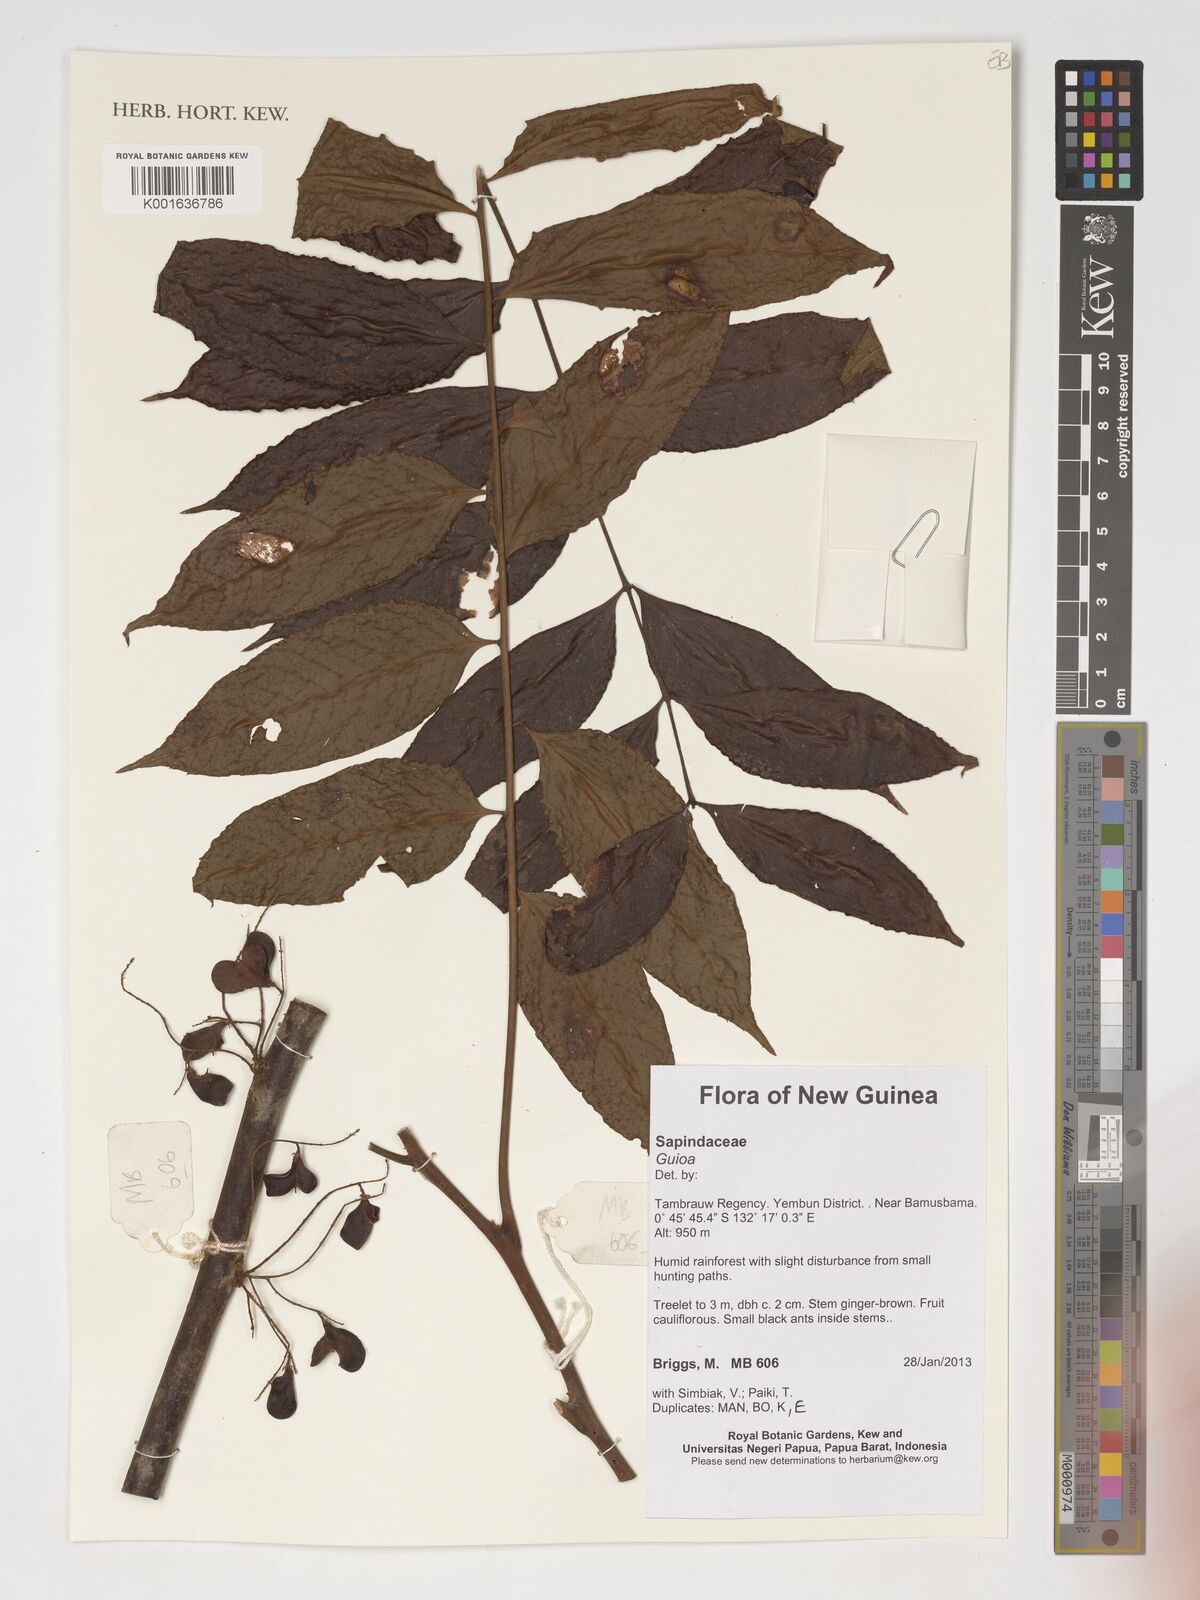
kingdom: Plantae
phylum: Tracheophyta
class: Magnoliopsida
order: Sapindales
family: Sapindaceae
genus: Guioa
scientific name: Guioa
